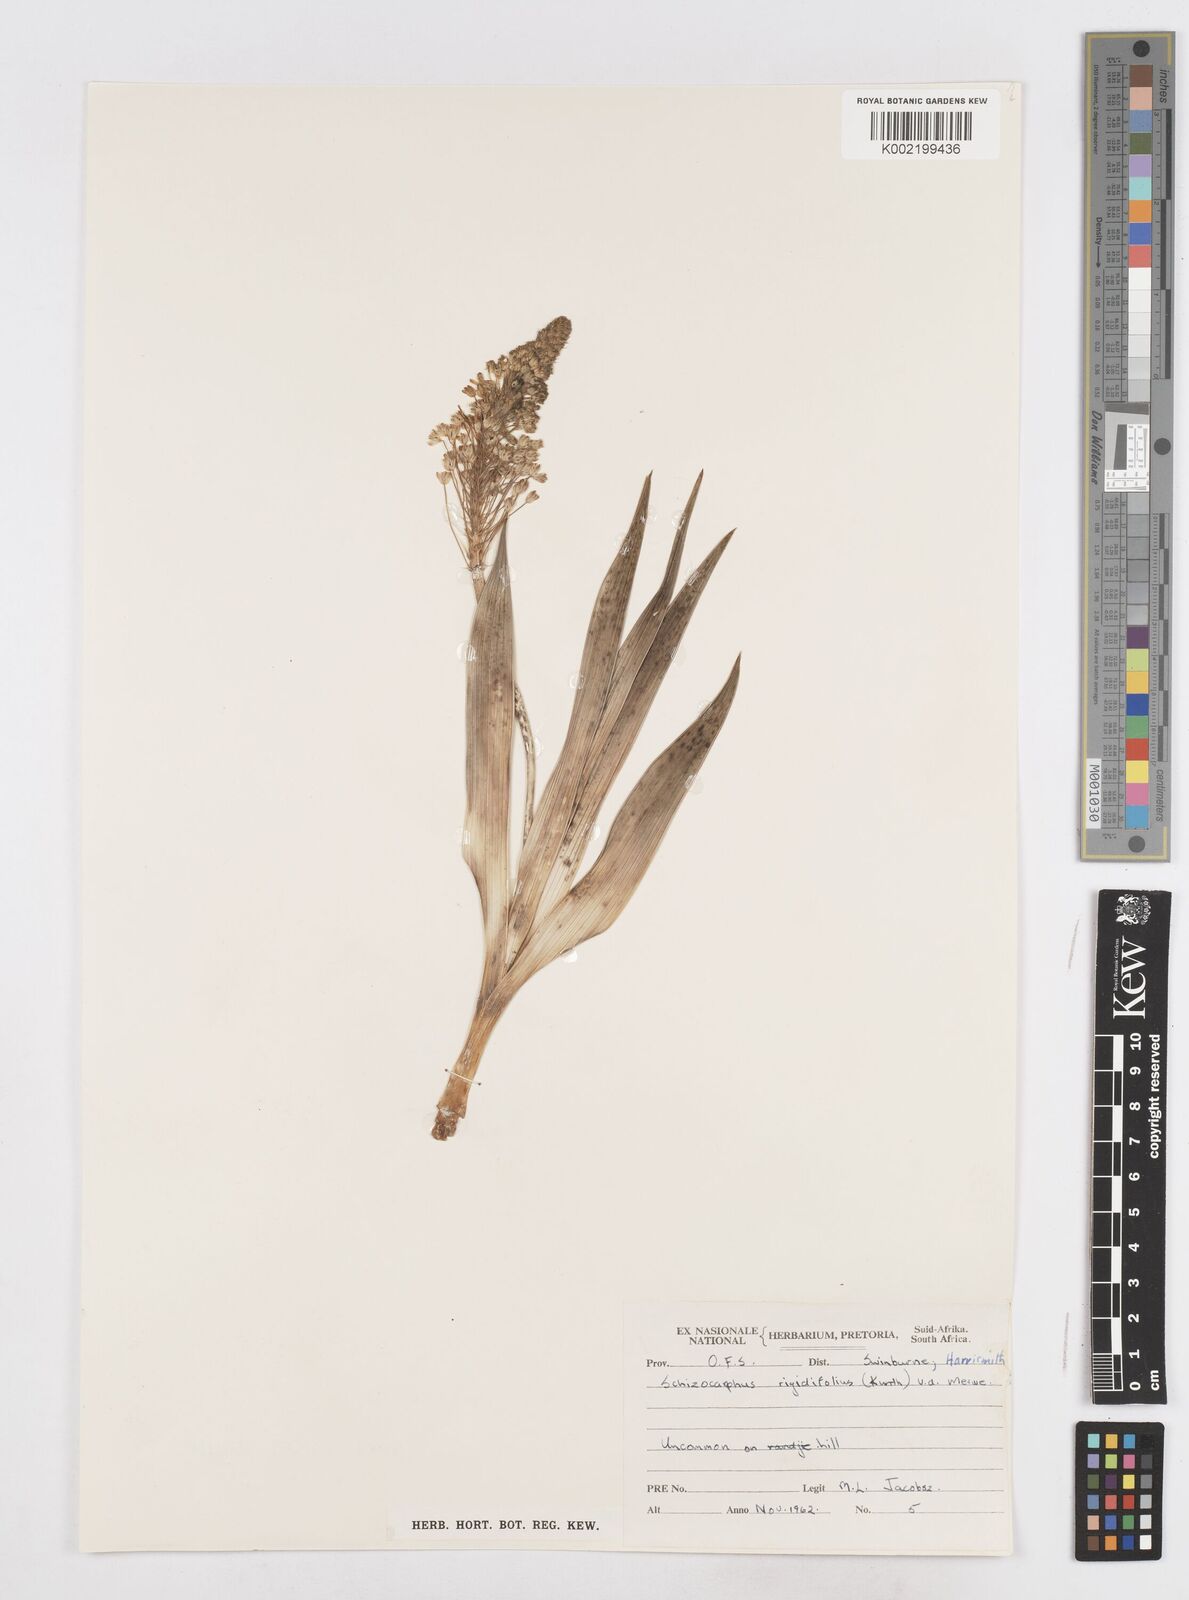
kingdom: Plantae
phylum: Tracheophyta
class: Liliopsida
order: Asparagales
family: Asparagaceae
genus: Schizocarphus
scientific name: Schizocarphus nervosus
